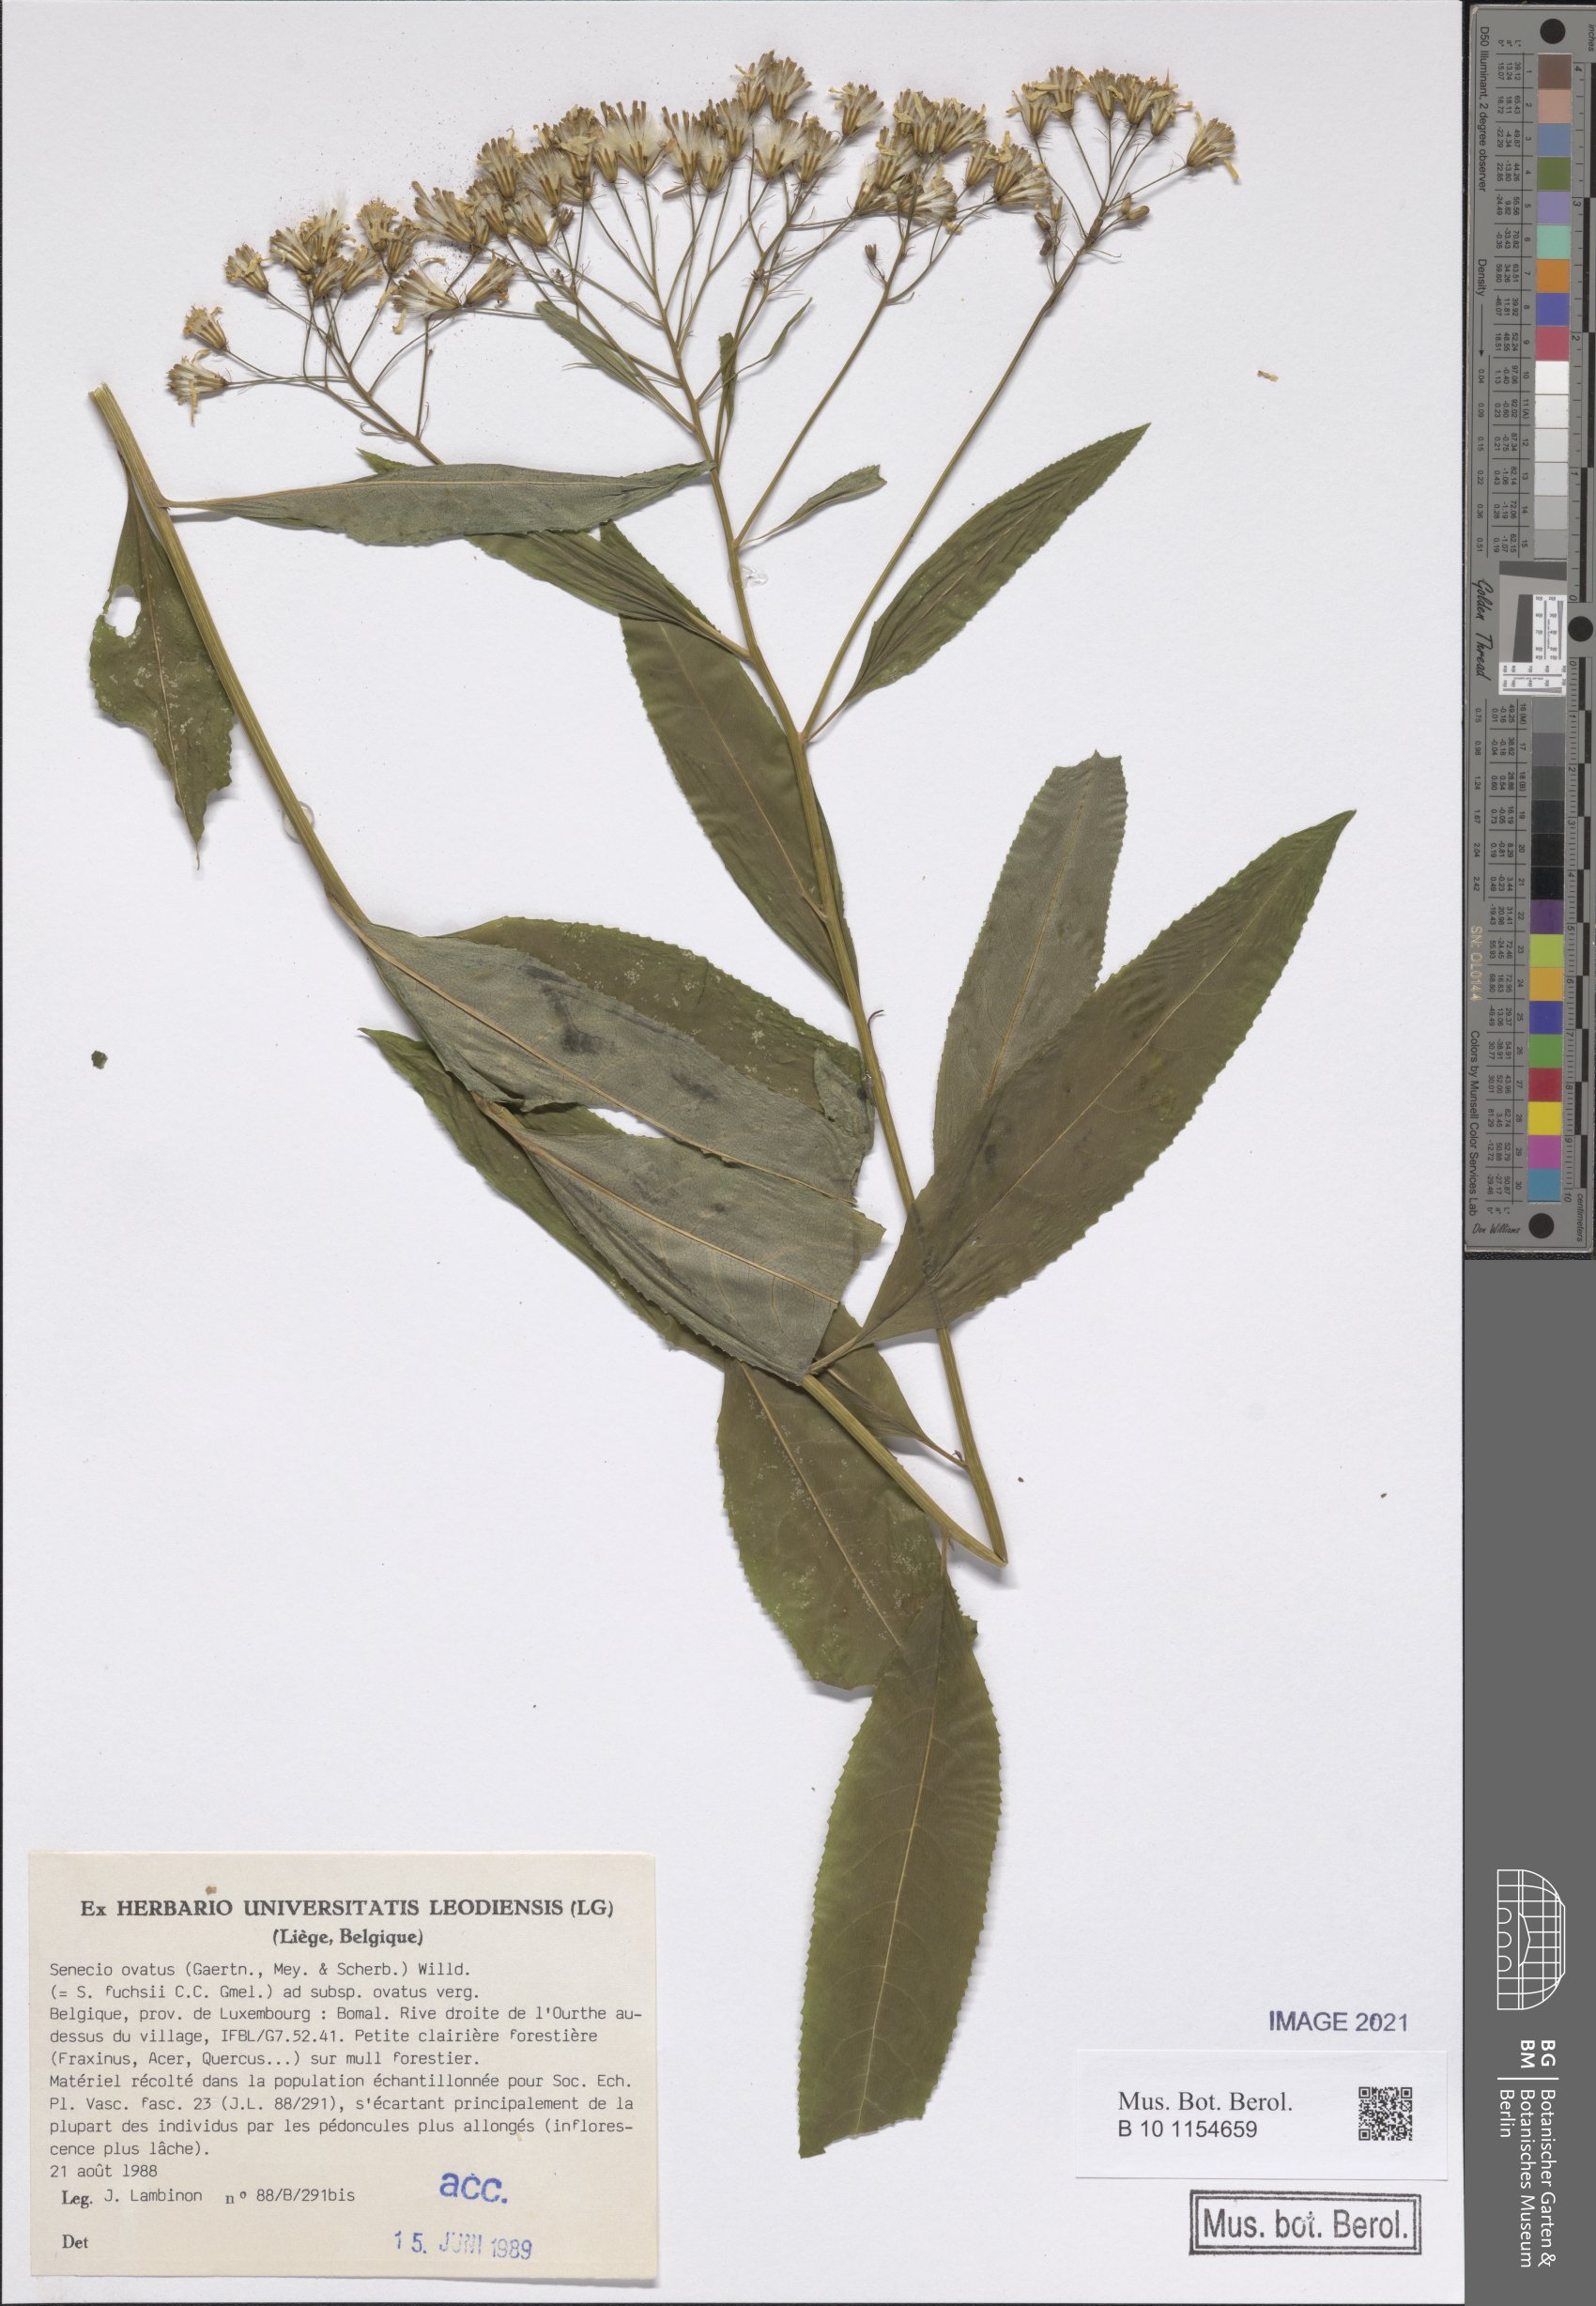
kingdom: Plantae
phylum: Tracheophyta
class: Magnoliopsida
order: Asterales
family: Asteraceae
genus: Senecio
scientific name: Senecio ovatus
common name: Wood ragwort
